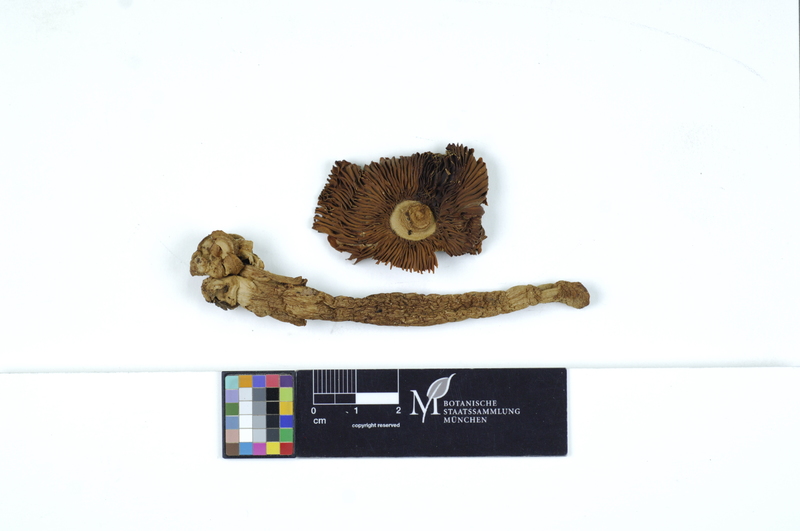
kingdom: Fungi
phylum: Basidiomycota
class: Agaricomycetes
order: Agaricales
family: Amanitaceae
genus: Amanita
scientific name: Amanita crocea
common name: Orange grisette
